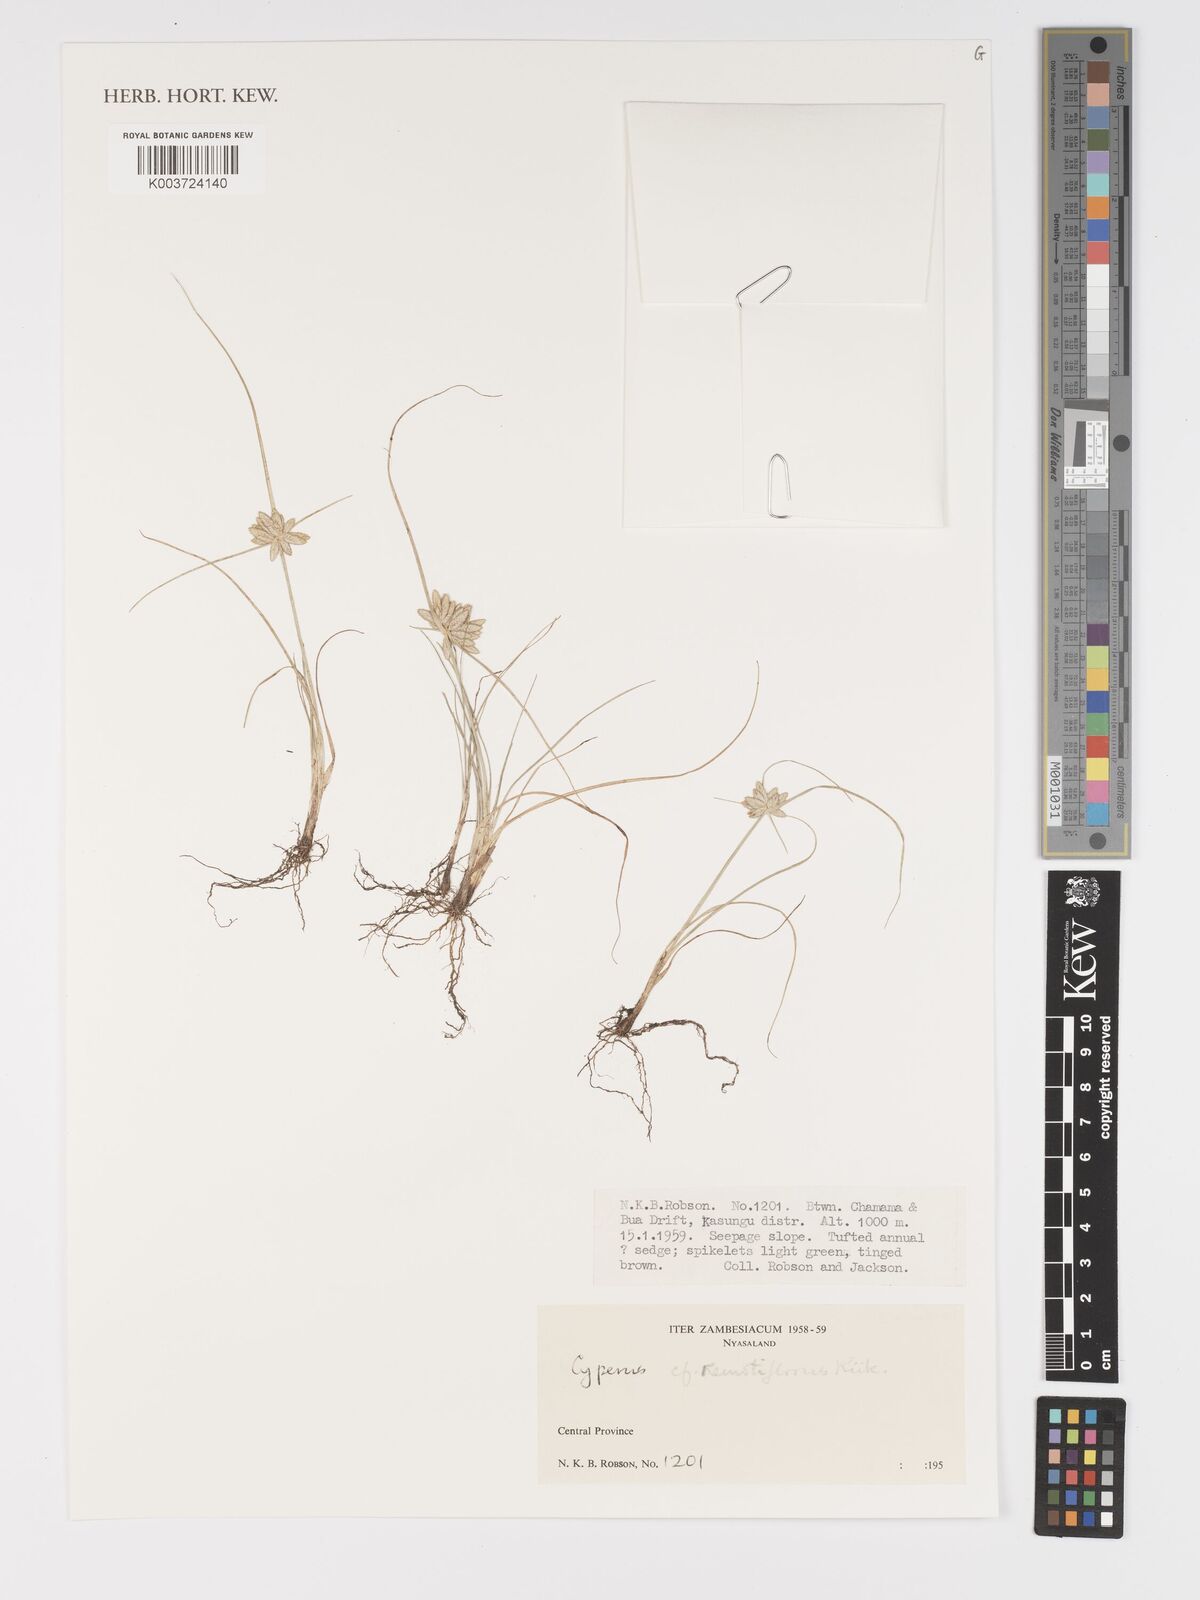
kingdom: Plantae
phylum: Tracheophyta
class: Liliopsida
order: Poales
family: Cyperaceae
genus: Cyperus
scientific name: Cyperus remotiflorus
